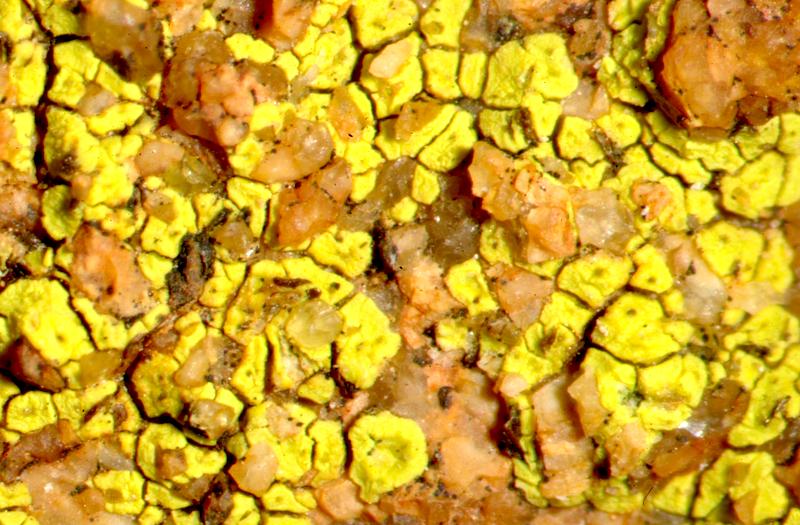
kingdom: Fungi
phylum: Ascomycota
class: Lecanoromycetes
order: Acarosporales
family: Acarosporaceae
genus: Acarospora
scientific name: Acarospora
